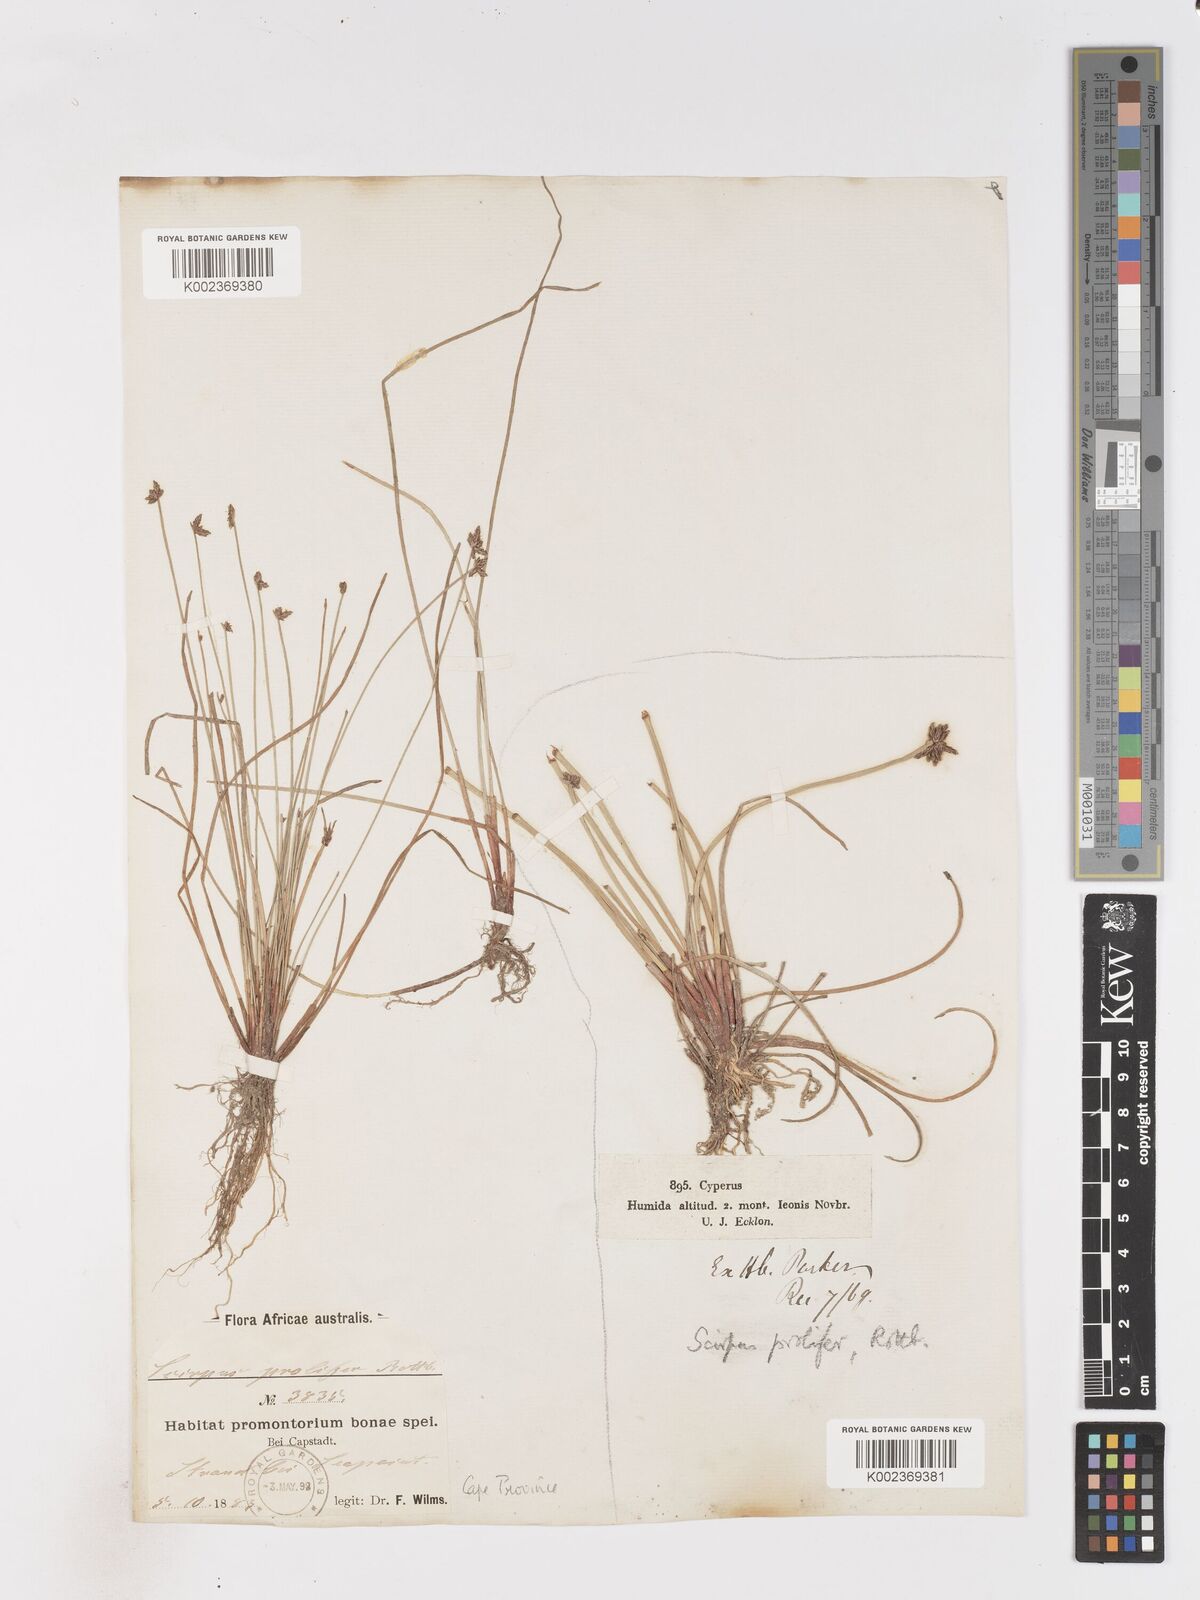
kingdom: Plantae
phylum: Tracheophyta
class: Liliopsida
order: Poales
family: Cyperaceae
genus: Isolepis
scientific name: Isolepis prolifera
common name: Proliferating bulrush
